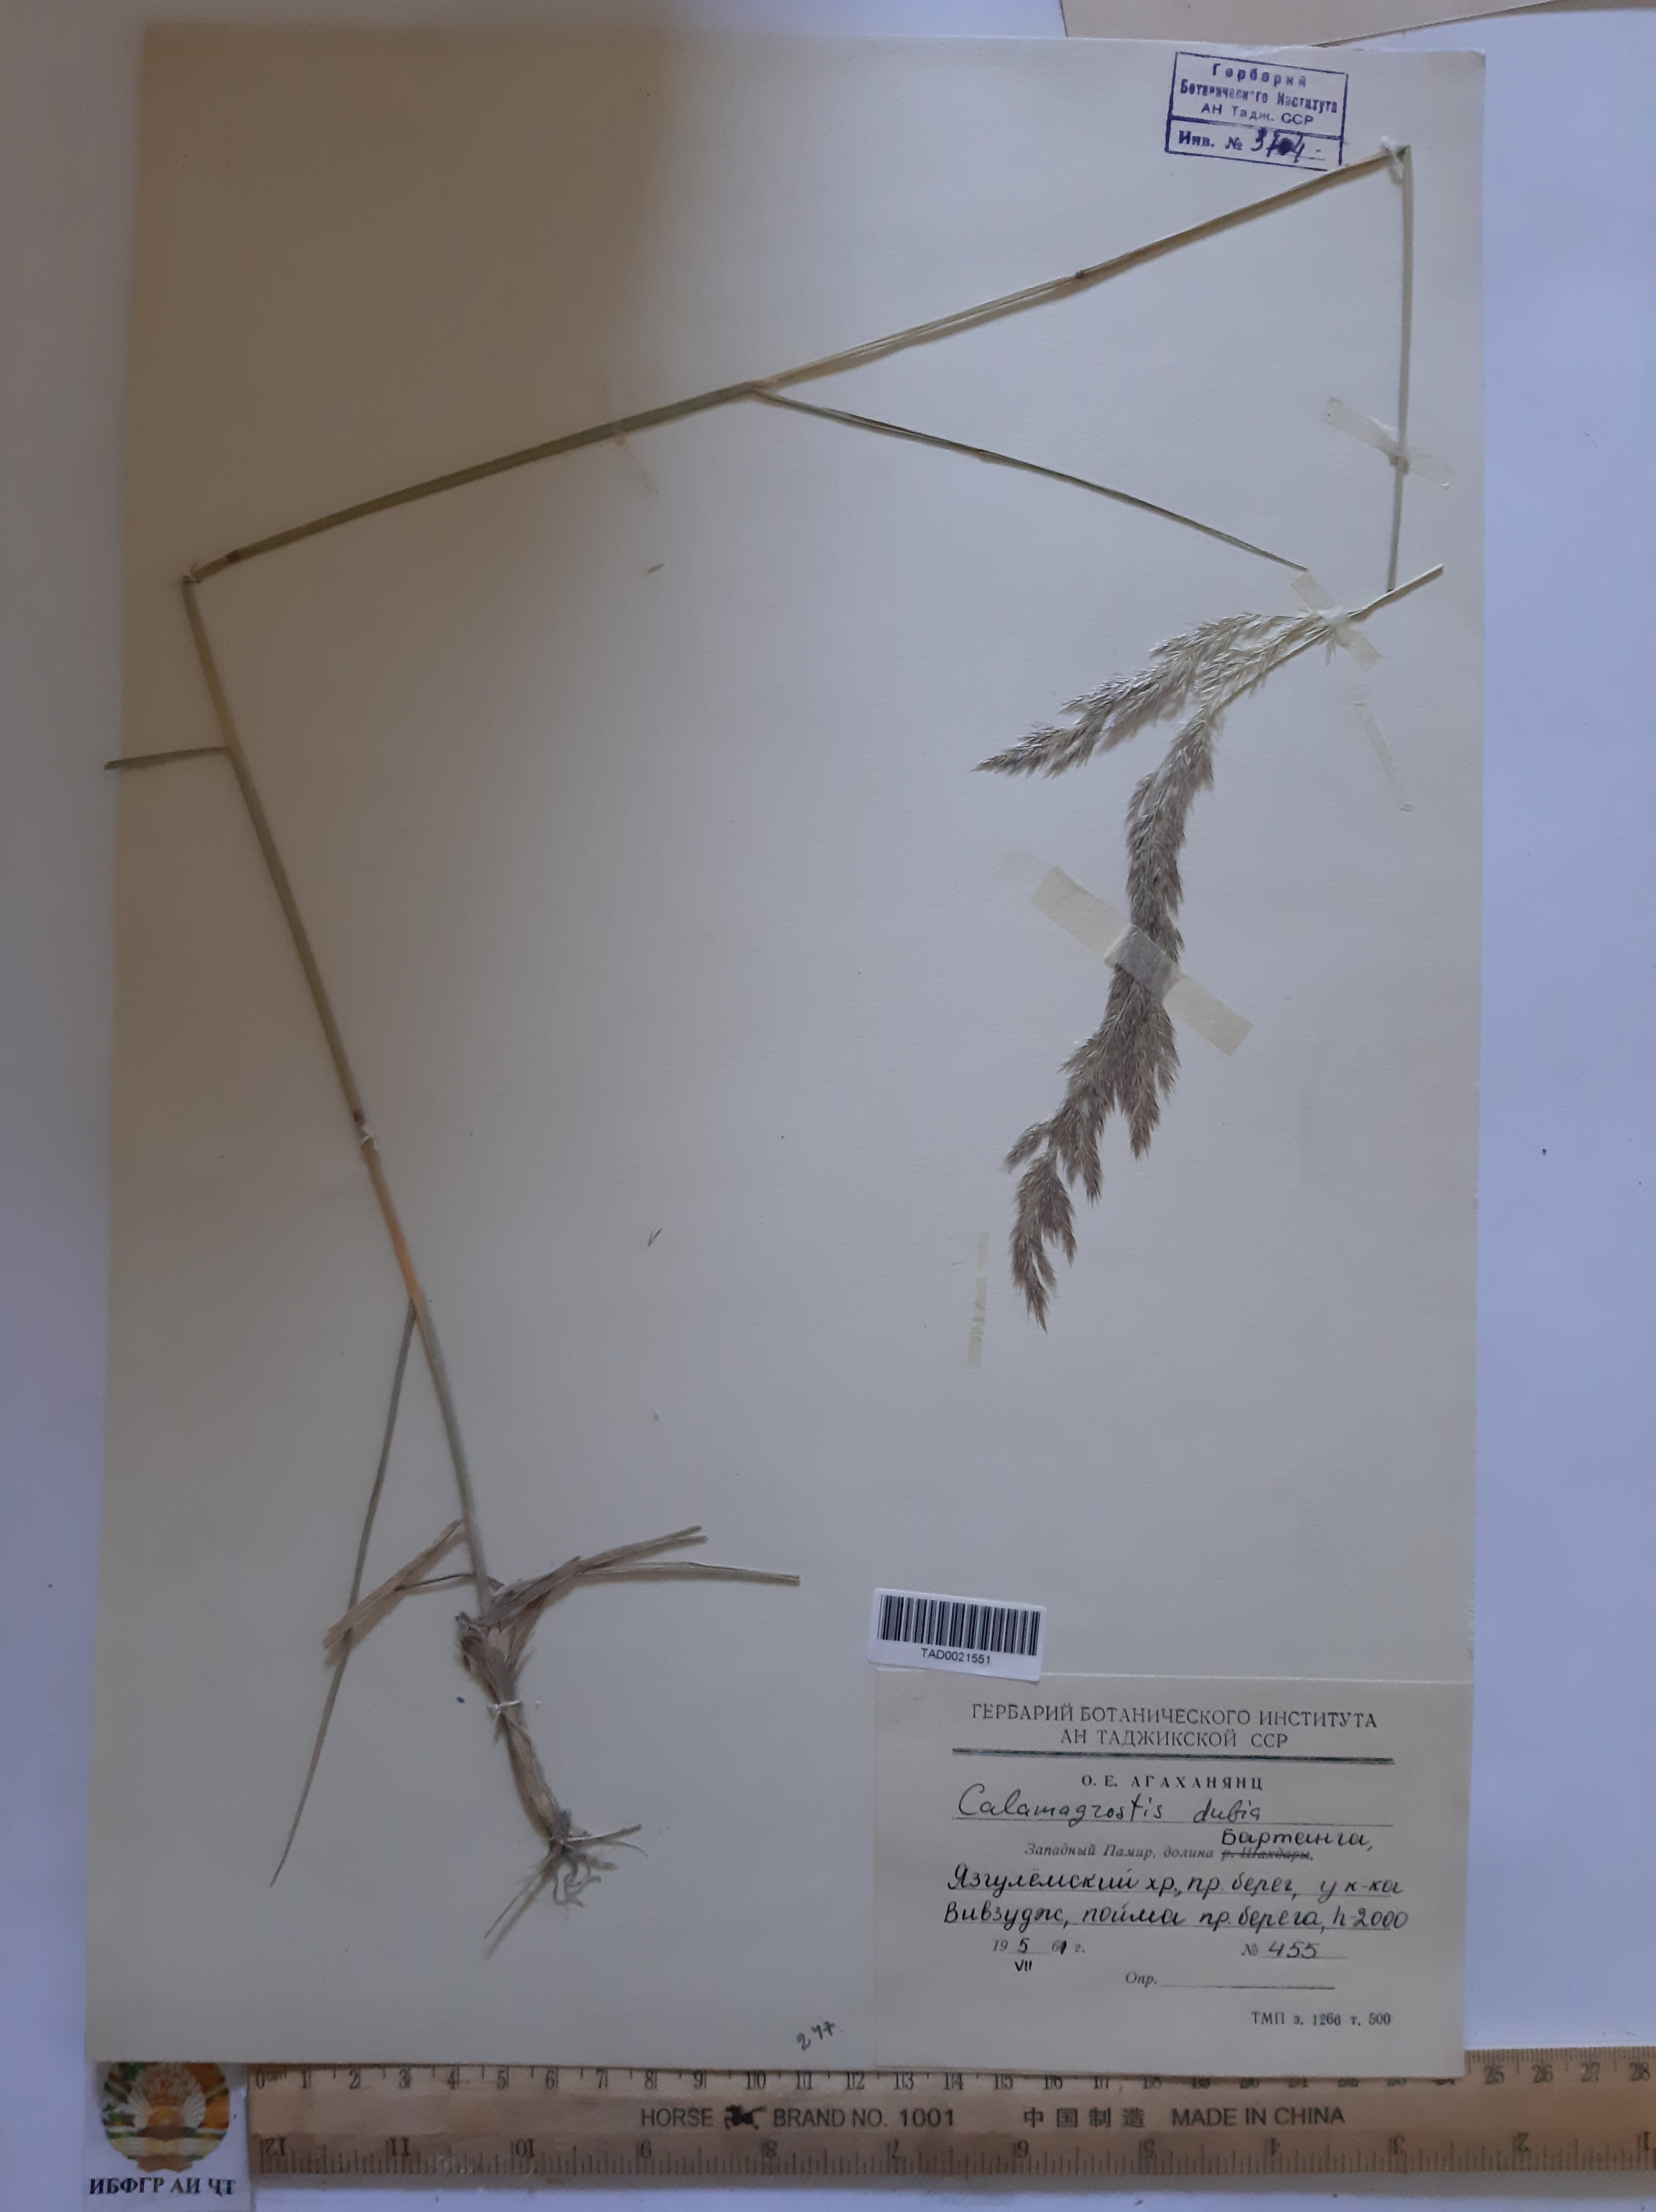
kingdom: Plantae
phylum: Tracheophyta
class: Liliopsida
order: Poales
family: Poaceae
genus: Calamagrostis
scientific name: Calamagrostis pseudophragmites
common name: Coastal small-reed
